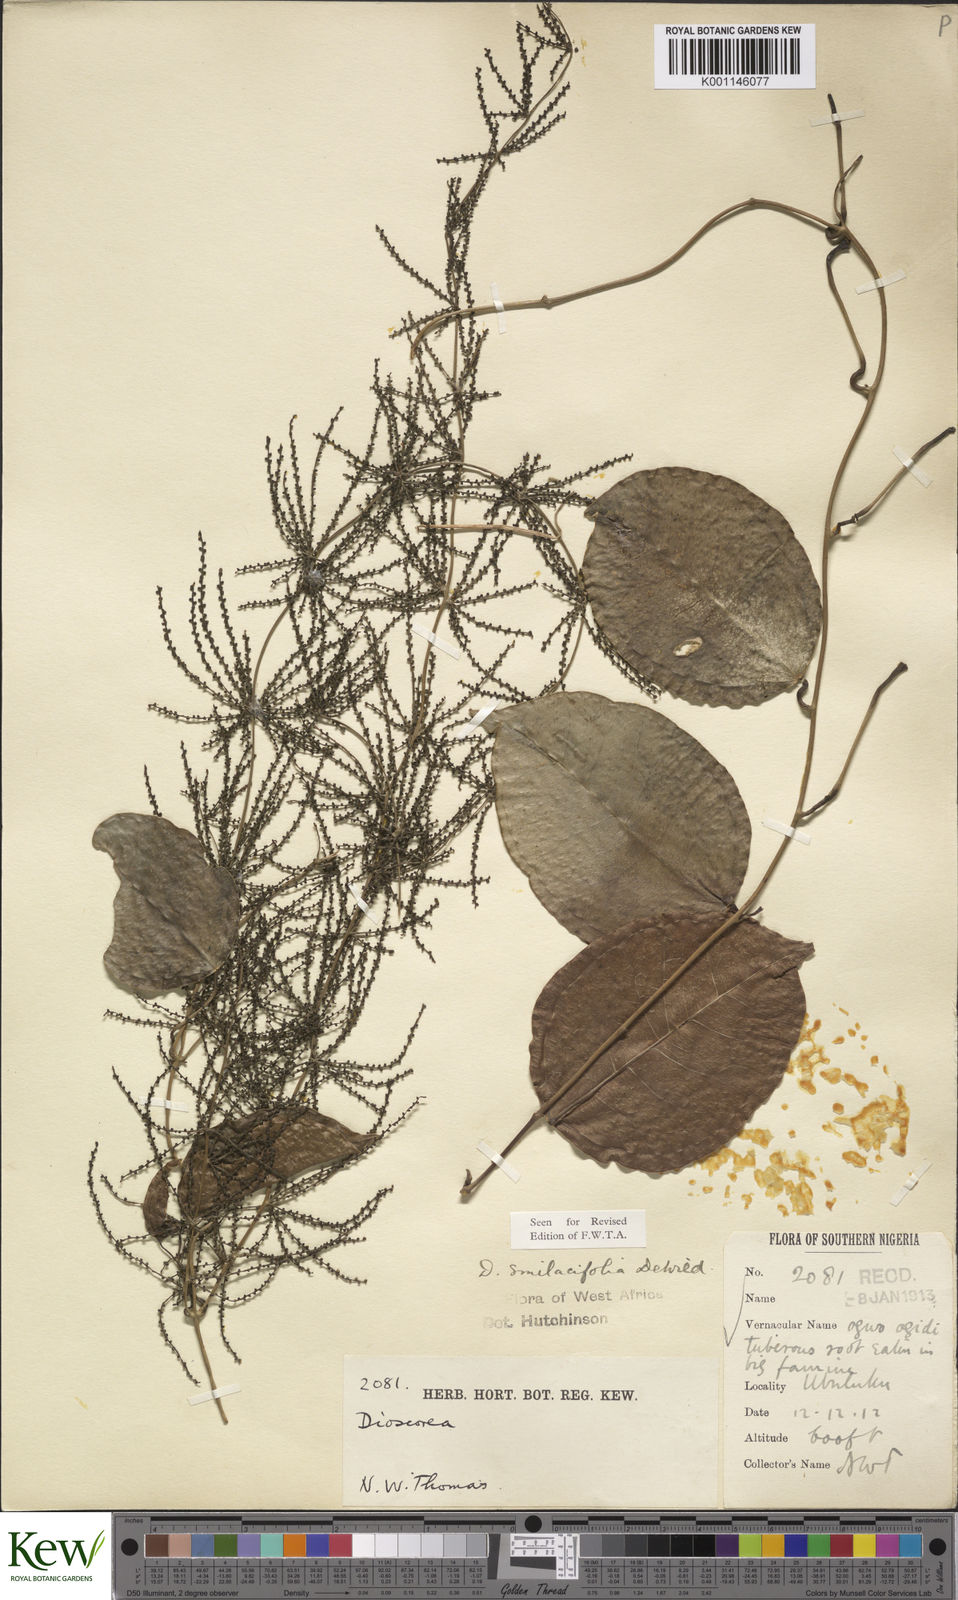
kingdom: Plantae
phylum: Tracheophyta
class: Liliopsida
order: Dioscoreales
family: Dioscoreaceae
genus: Dioscorea
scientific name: Dioscorea smilacifolia
